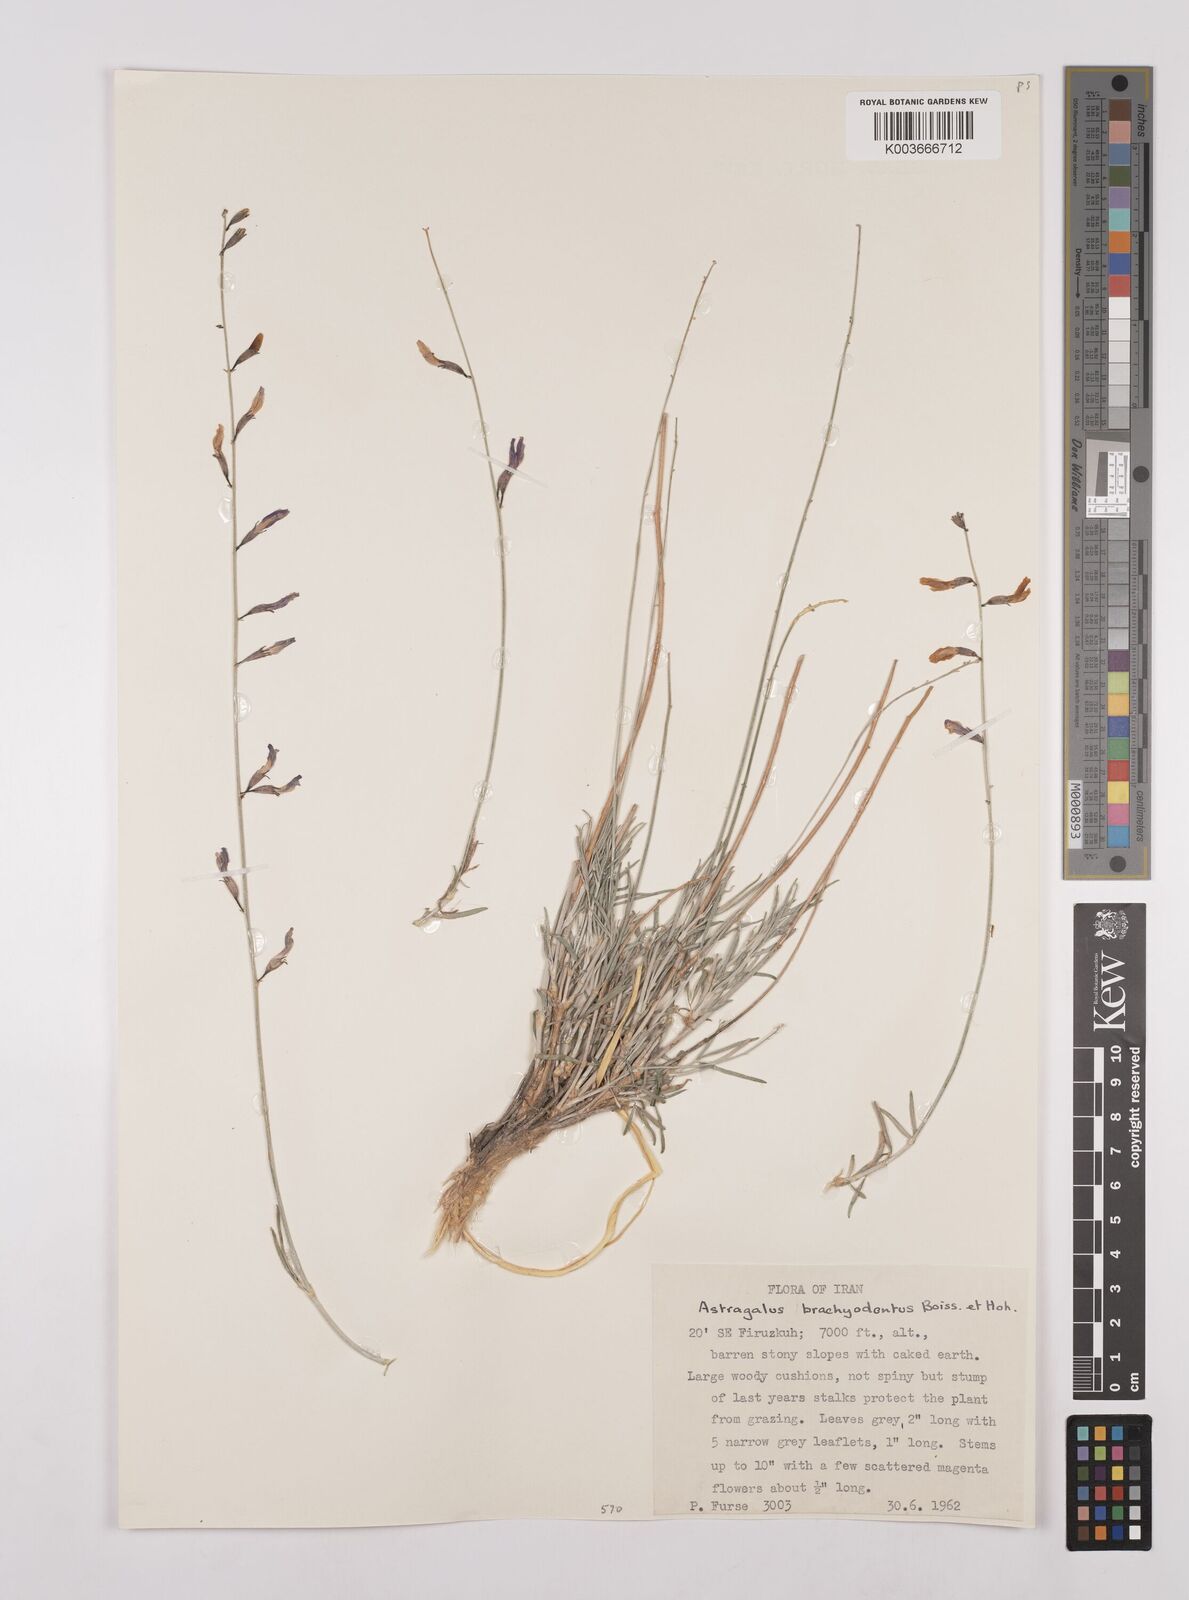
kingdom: Plantae
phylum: Tracheophyta
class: Magnoliopsida
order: Fabales
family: Fabaceae
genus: Astragalus
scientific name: Astragalus podolobus
